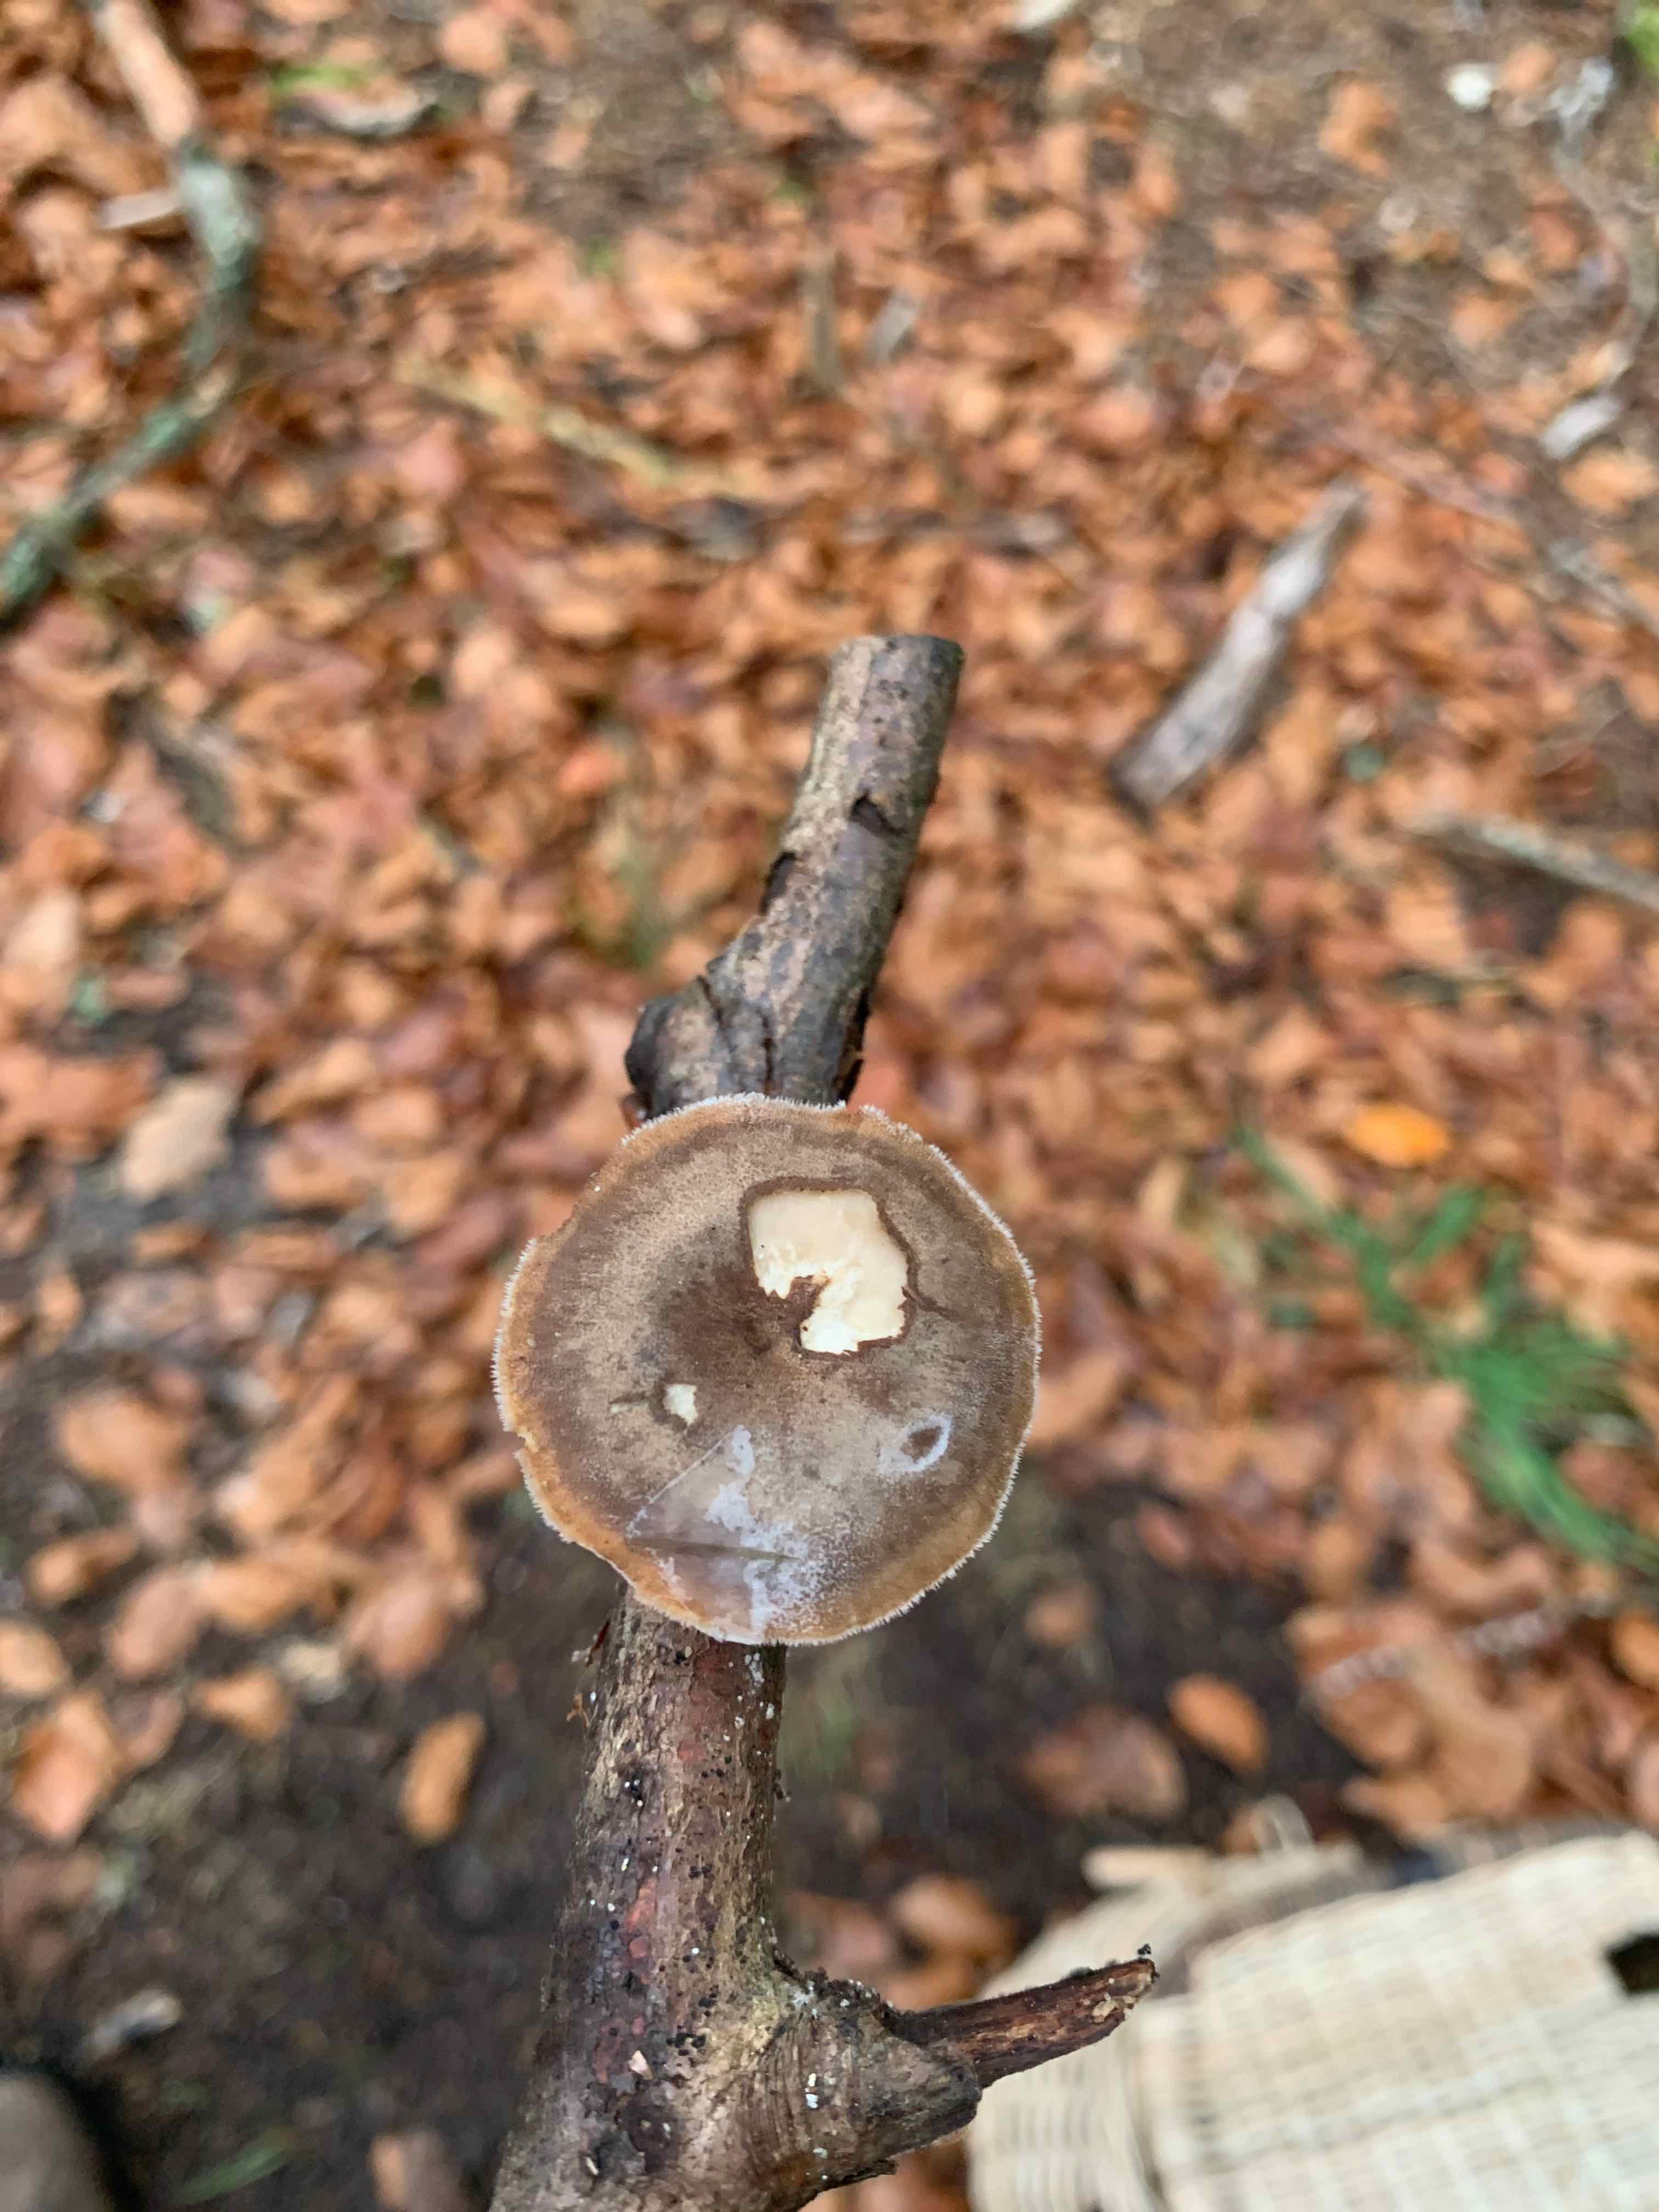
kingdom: Fungi
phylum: Basidiomycota
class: Agaricomycetes
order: Polyporales
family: Polyporaceae
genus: Lentinus
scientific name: Lentinus brumalis
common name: vinter-stilkporesvamp
